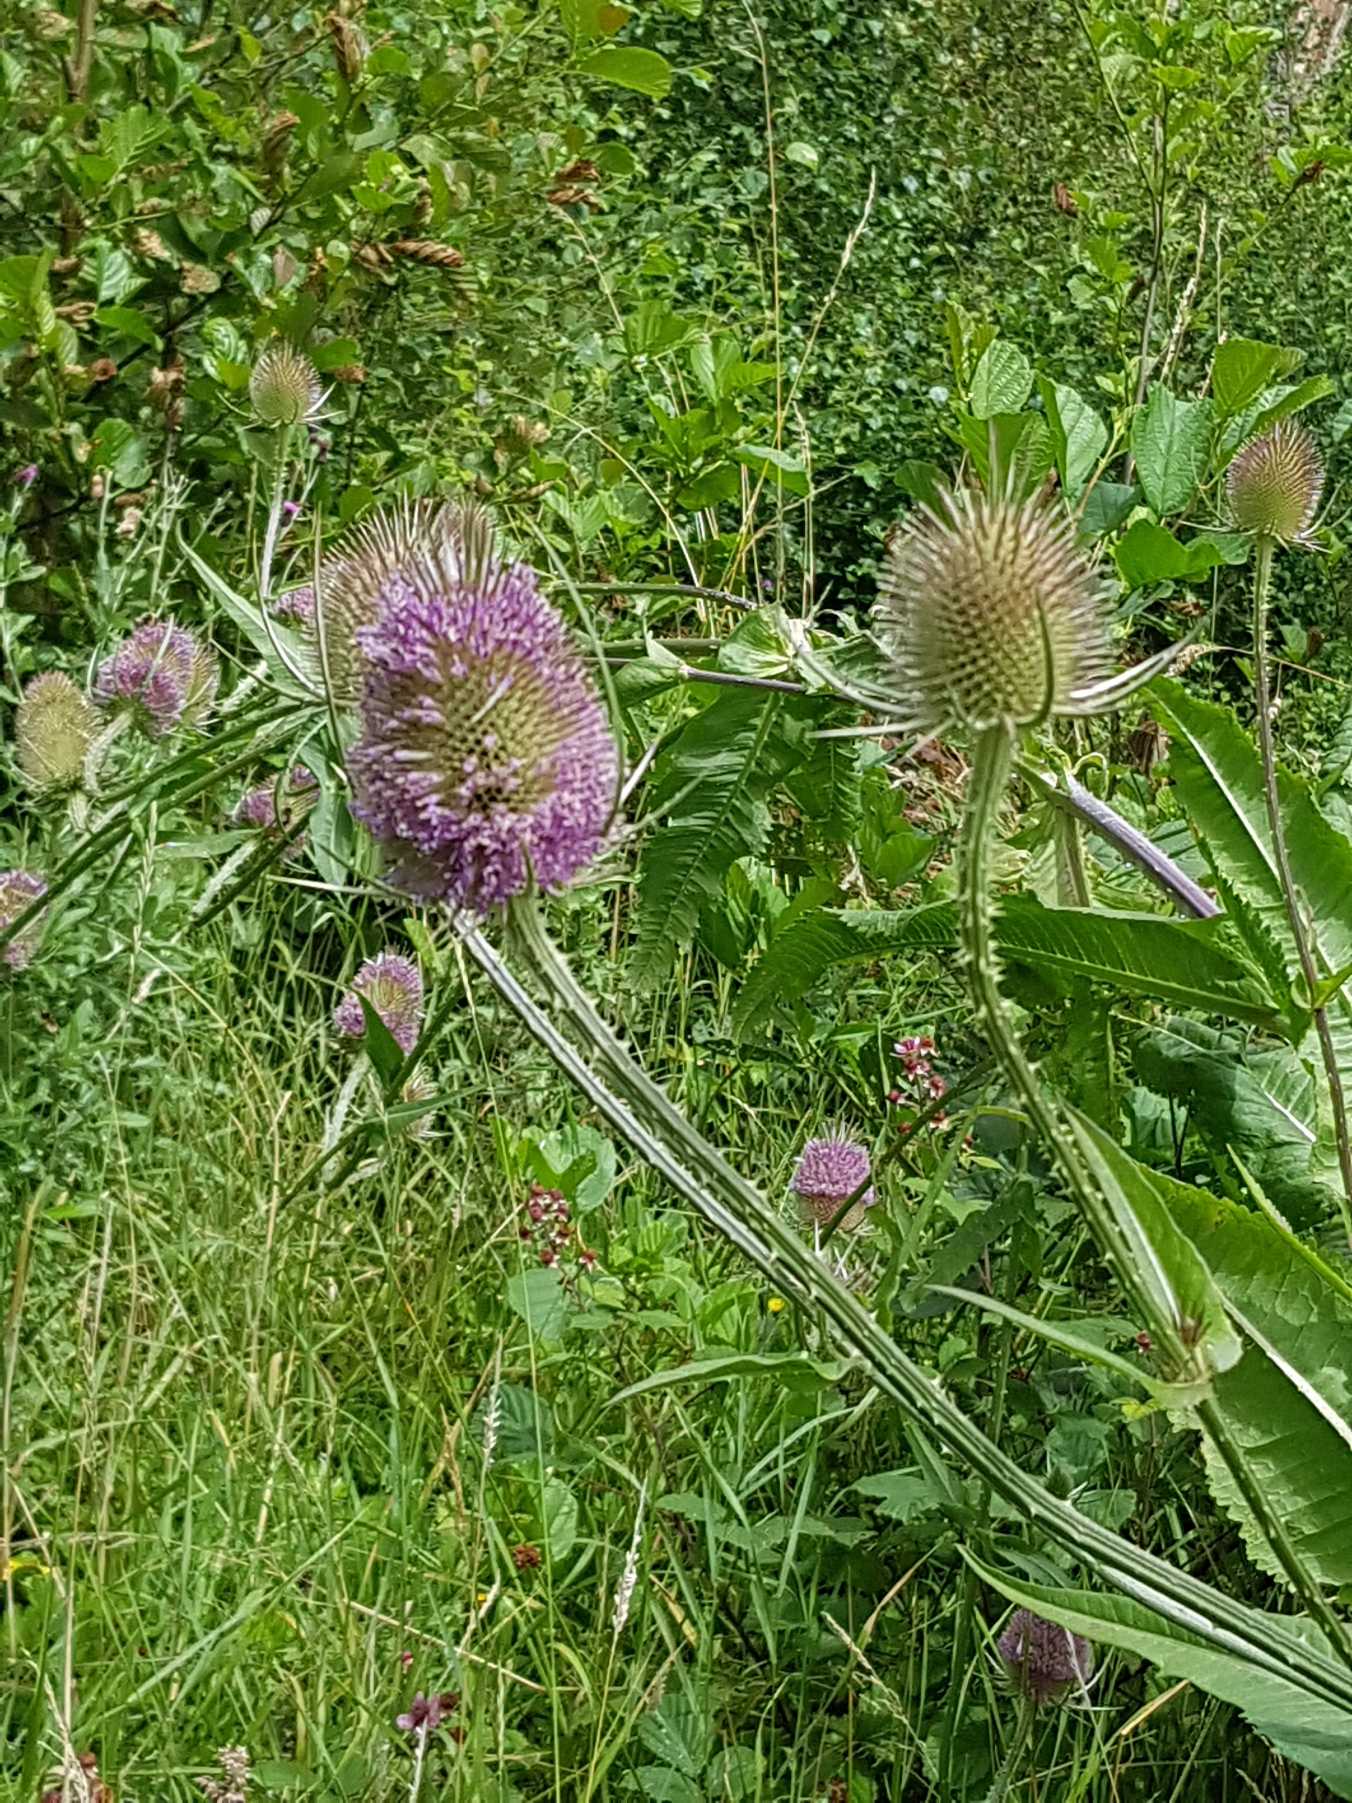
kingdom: Plantae
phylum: Tracheophyta
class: Magnoliopsida
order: Dipsacales
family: Caprifoliaceae
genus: Dipsacus
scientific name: Dipsacus fullonum
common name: Gærde-kartebolle
